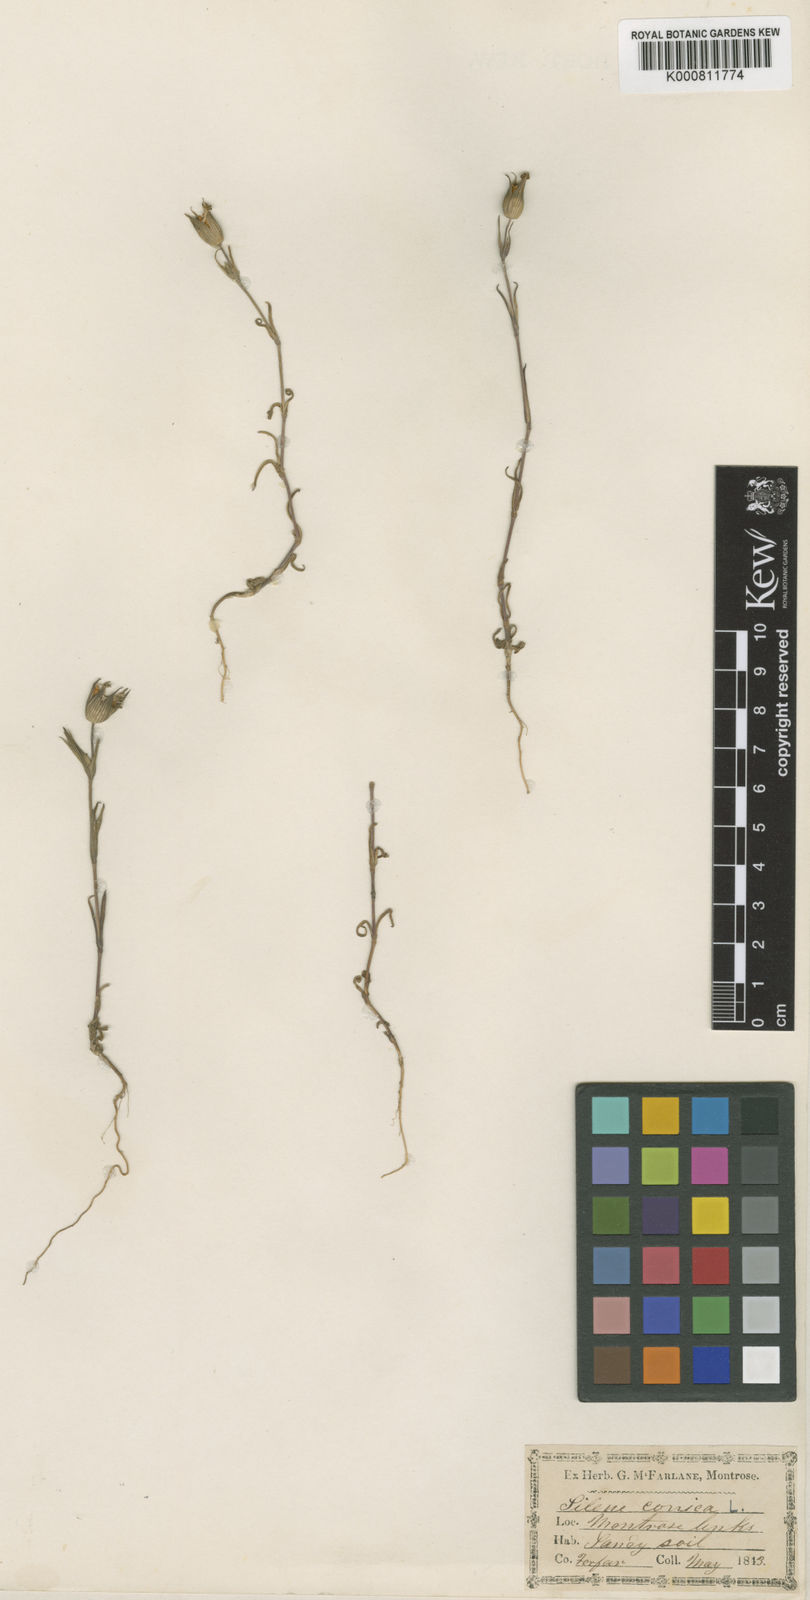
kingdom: Plantae
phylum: Tracheophyta
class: Magnoliopsida
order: Caryophyllales
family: Caryophyllaceae
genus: Silene
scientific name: Silene conica
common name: Sand catchfly
